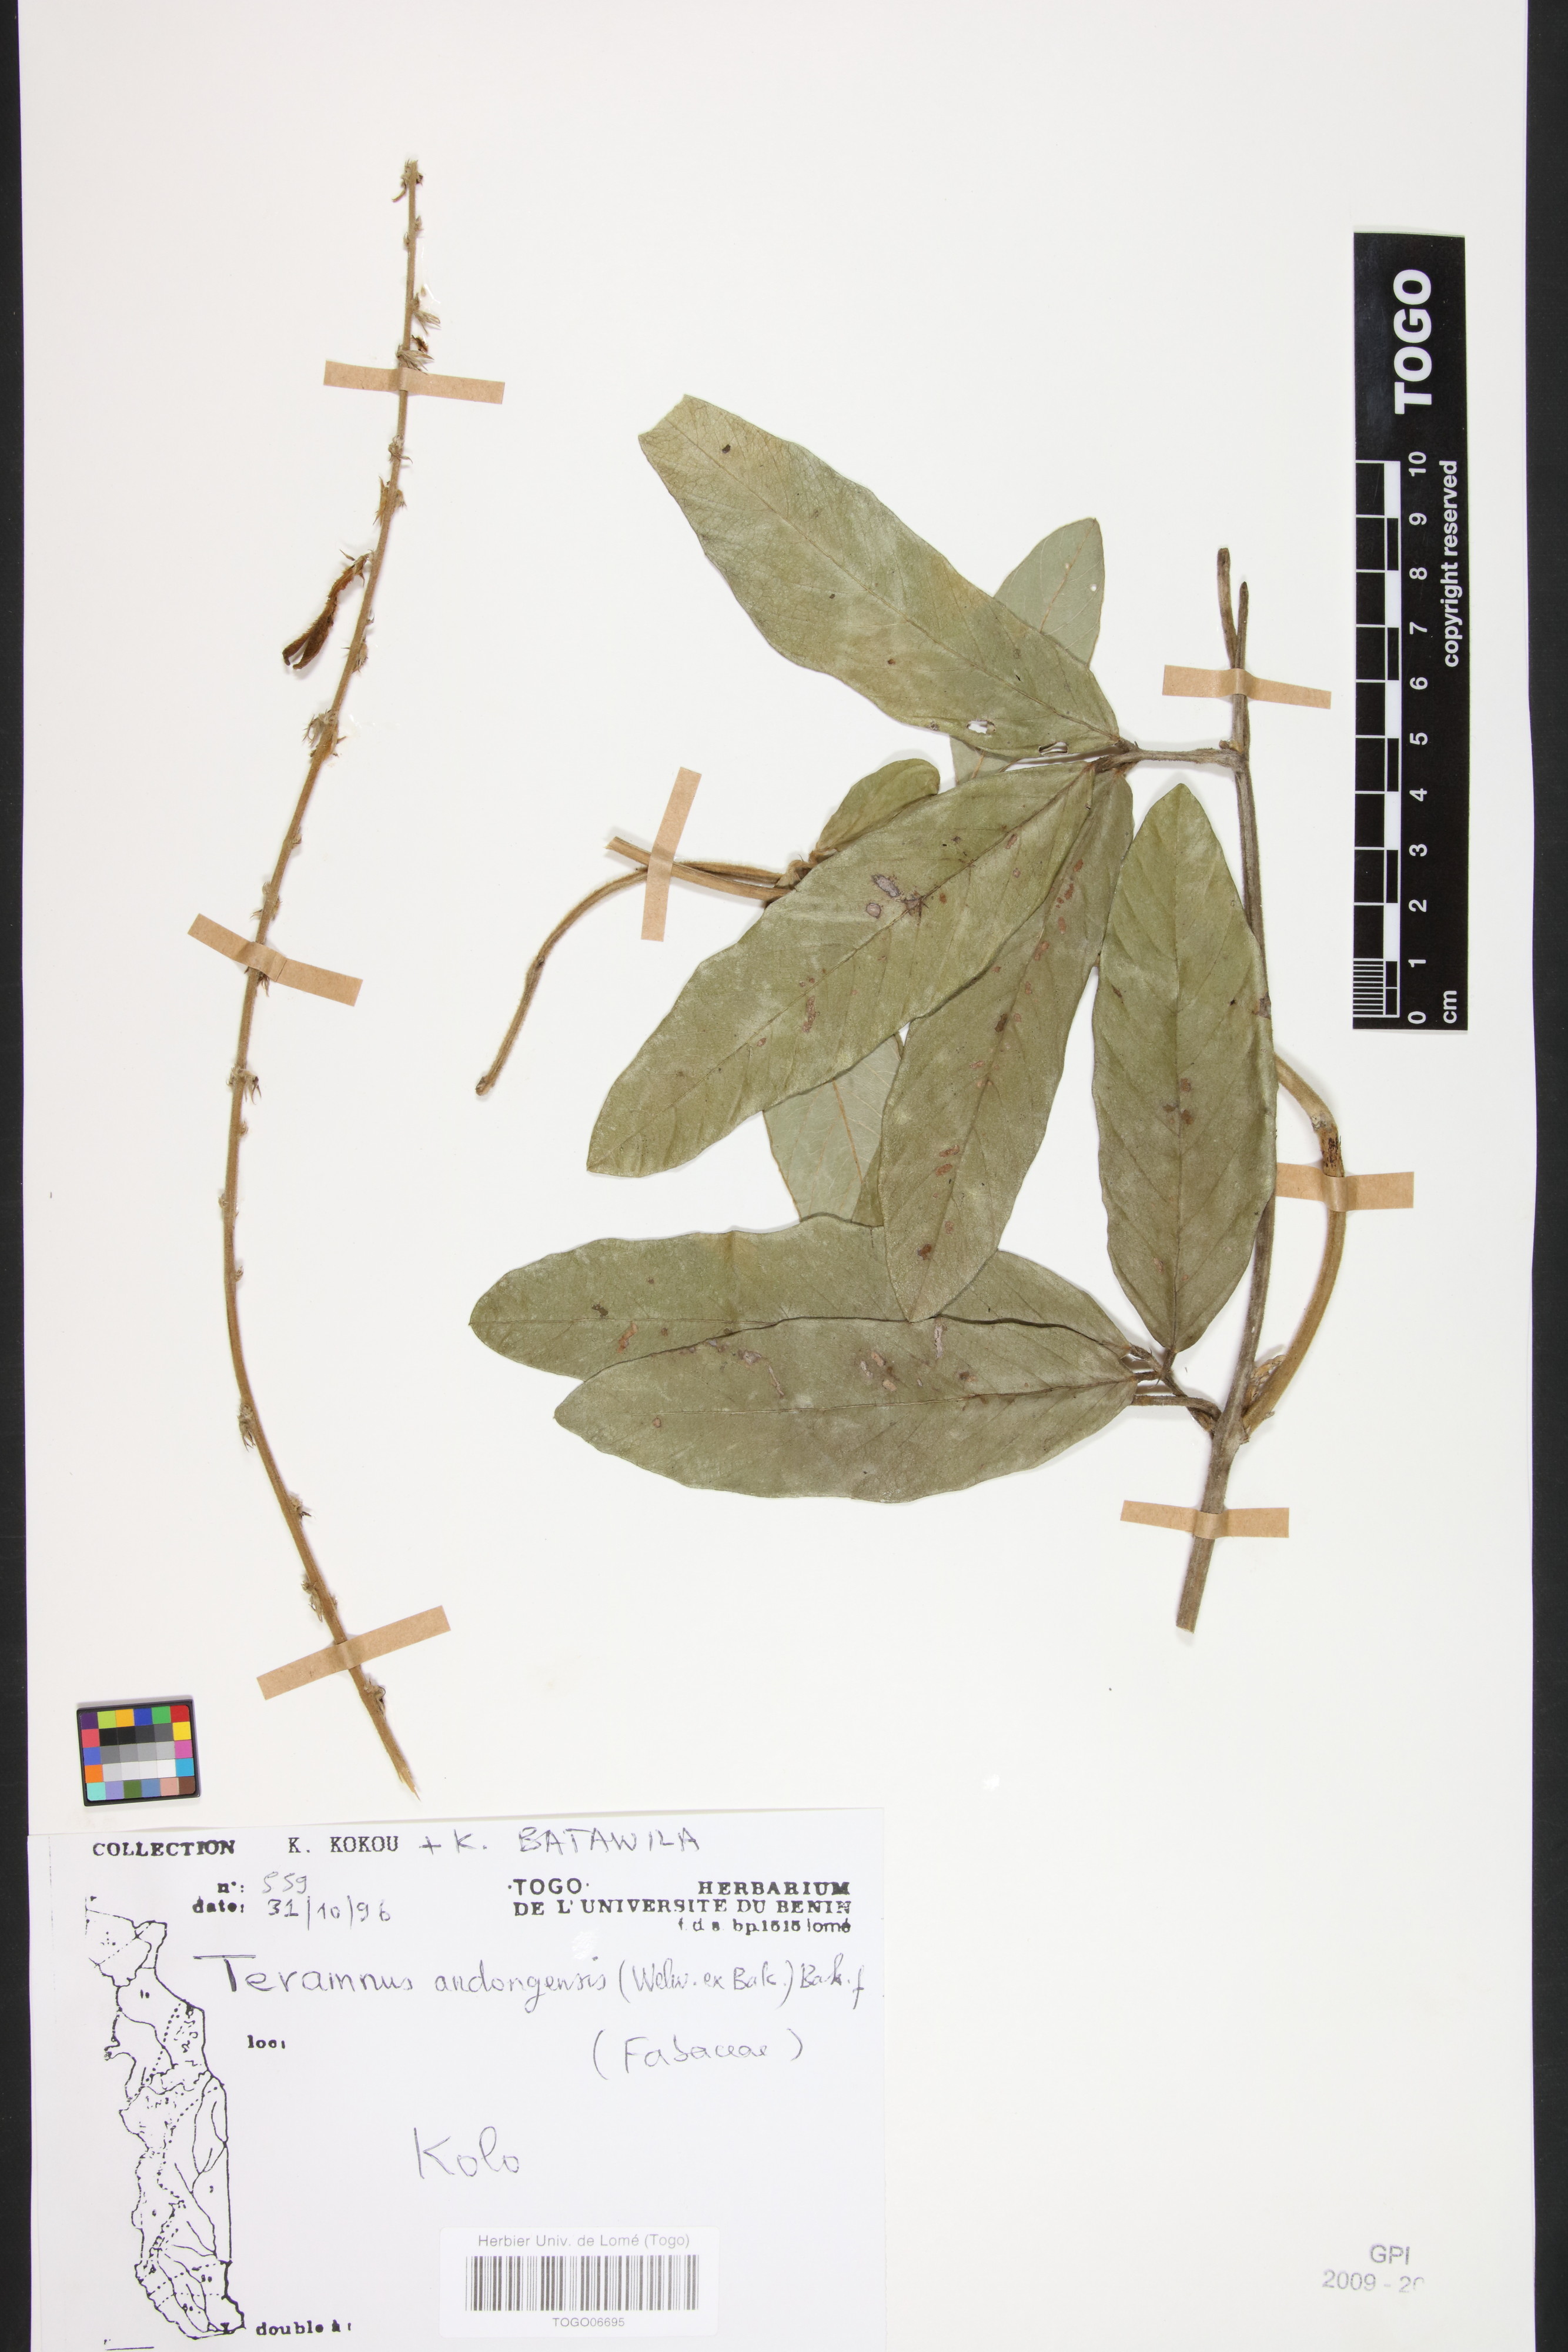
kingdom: Plantae
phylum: Tracheophyta
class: Magnoliopsida
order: Fabales
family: Fabaceae
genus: Teramnus
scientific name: Teramnus uncinatus
